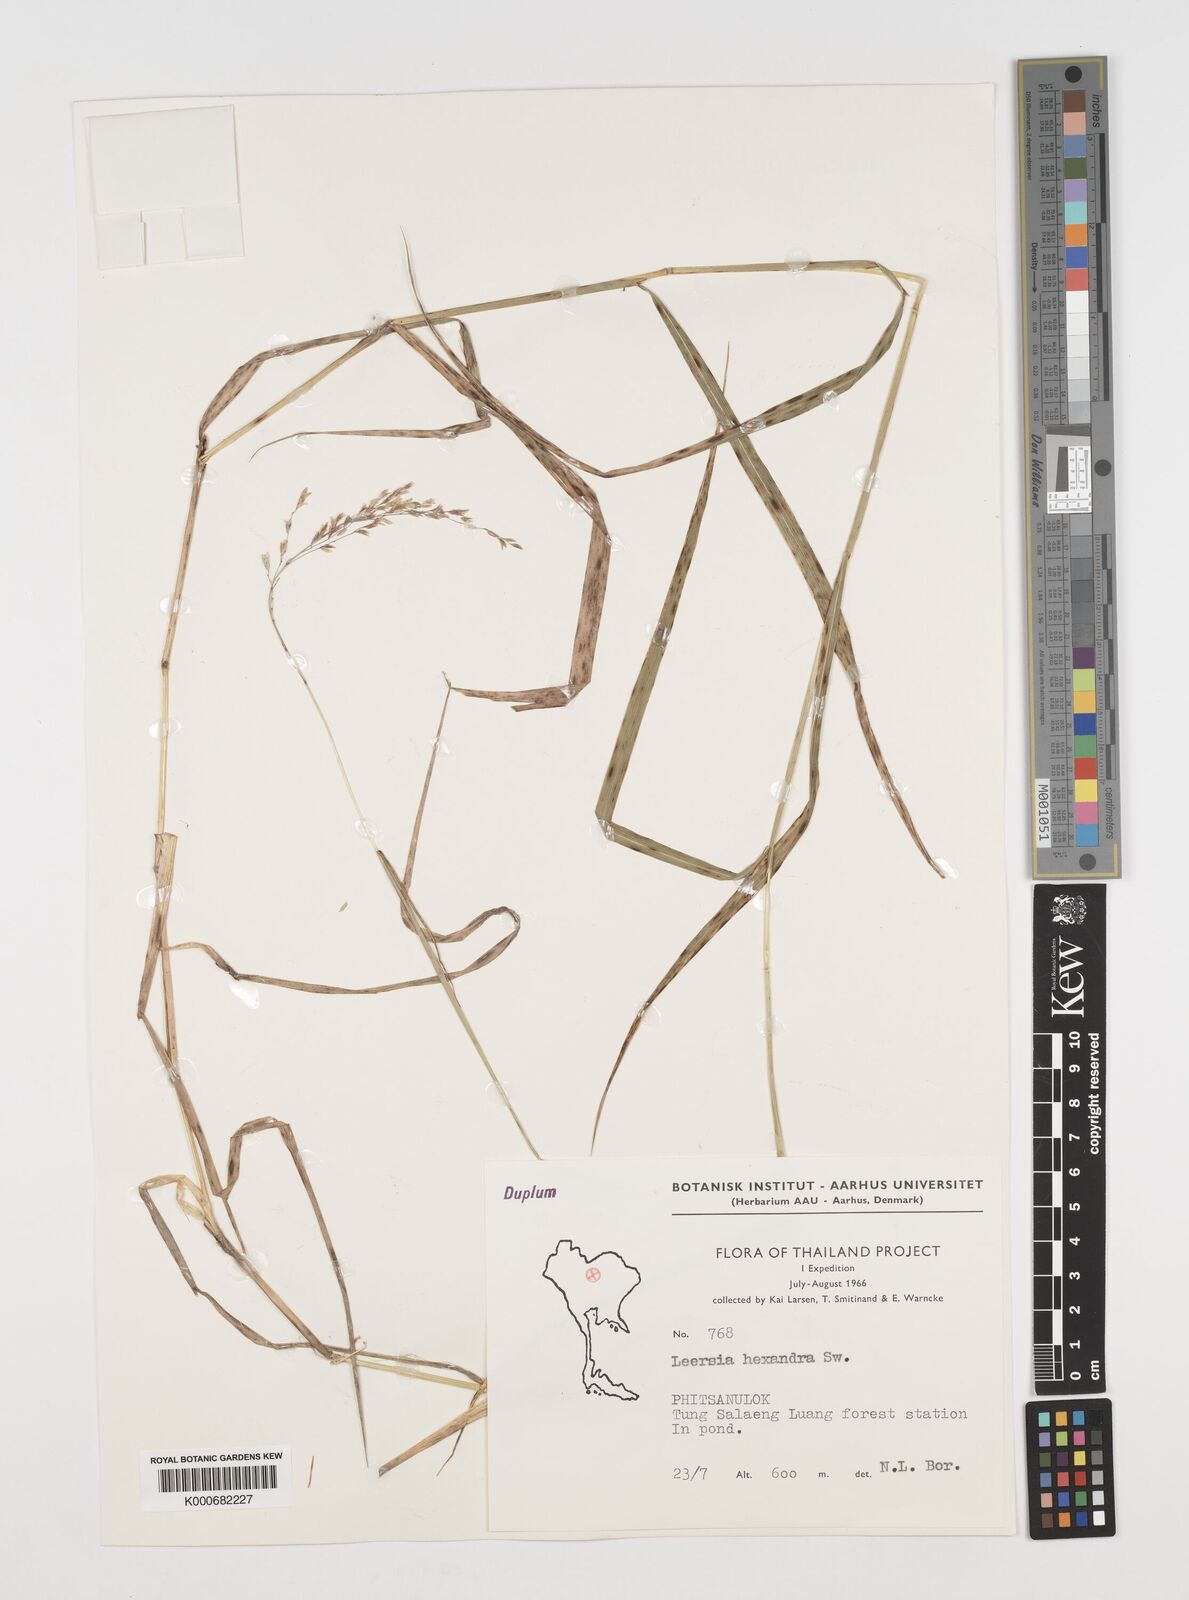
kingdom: Plantae
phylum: Tracheophyta
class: Liliopsida
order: Poales
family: Poaceae
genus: Leersia
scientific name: Leersia hexandra
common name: Southern cut grass
